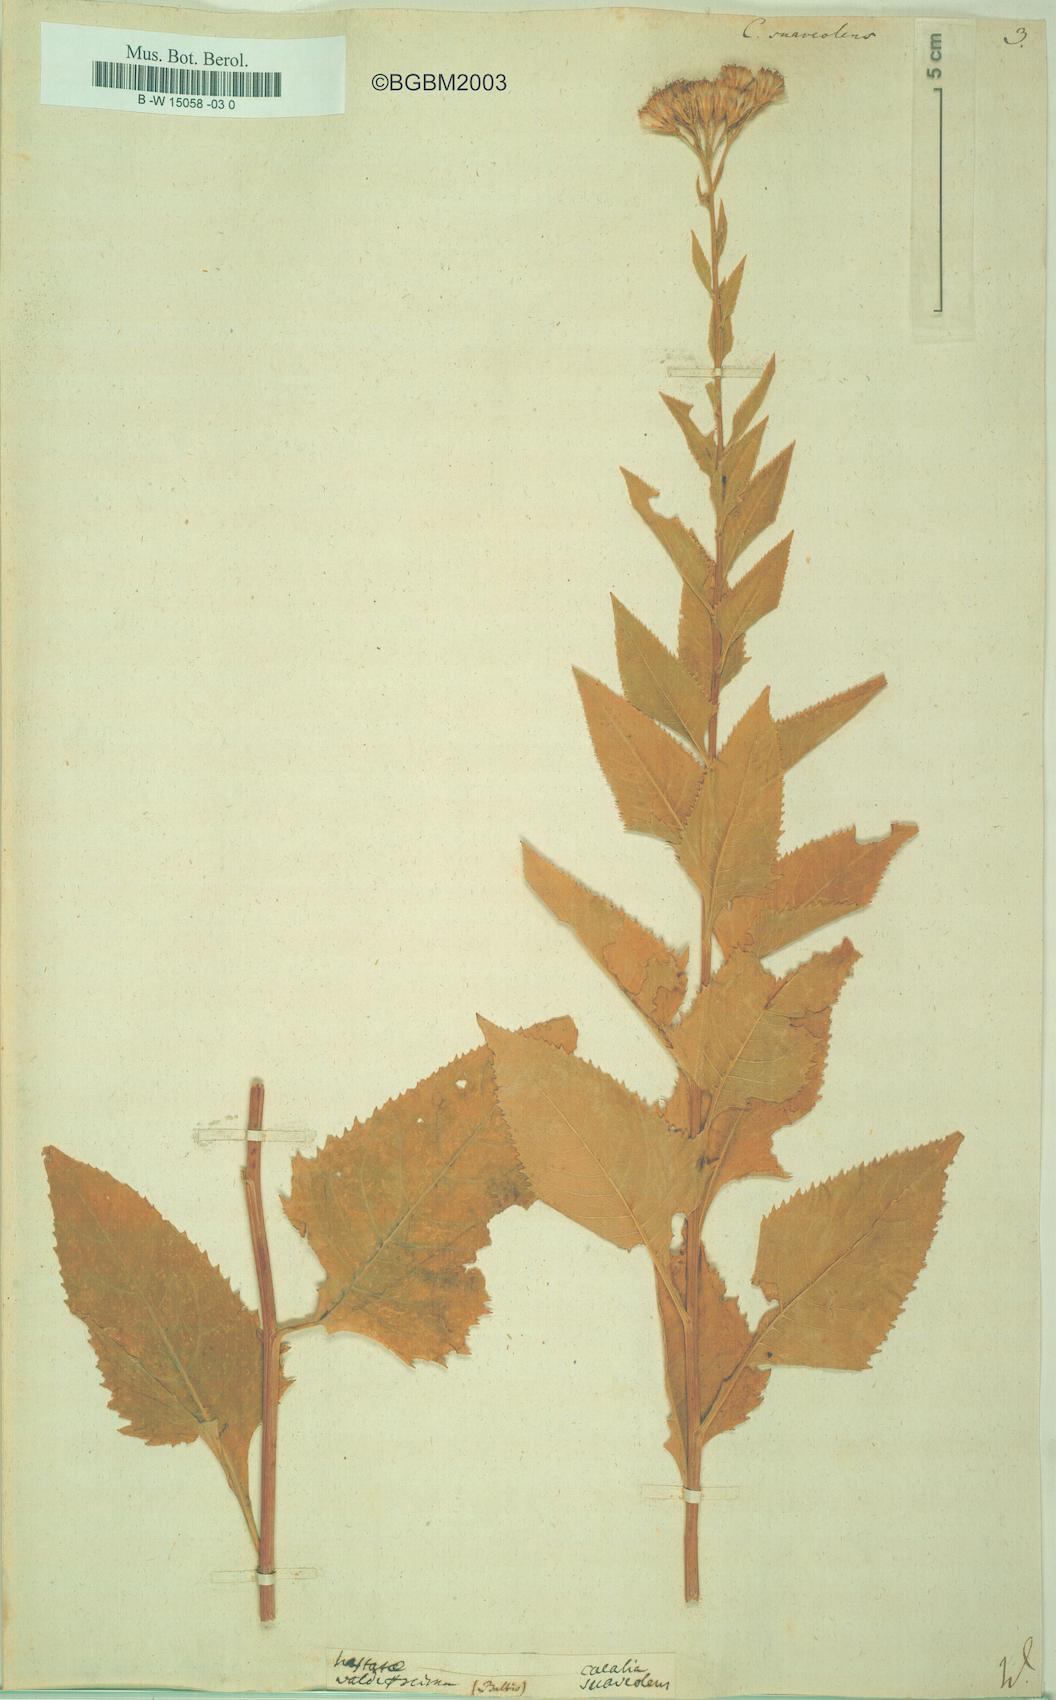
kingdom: Plantae
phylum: Tracheophyta
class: Magnoliopsida
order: Asterales
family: Asteraceae
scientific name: Asteraceae
